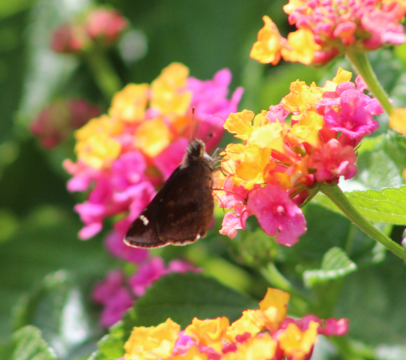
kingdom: Animalia
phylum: Arthropoda
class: Insecta
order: Lepidoptera
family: Hesperiidae
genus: Lerema
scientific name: Lerema accius
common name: Clouded Skipper
